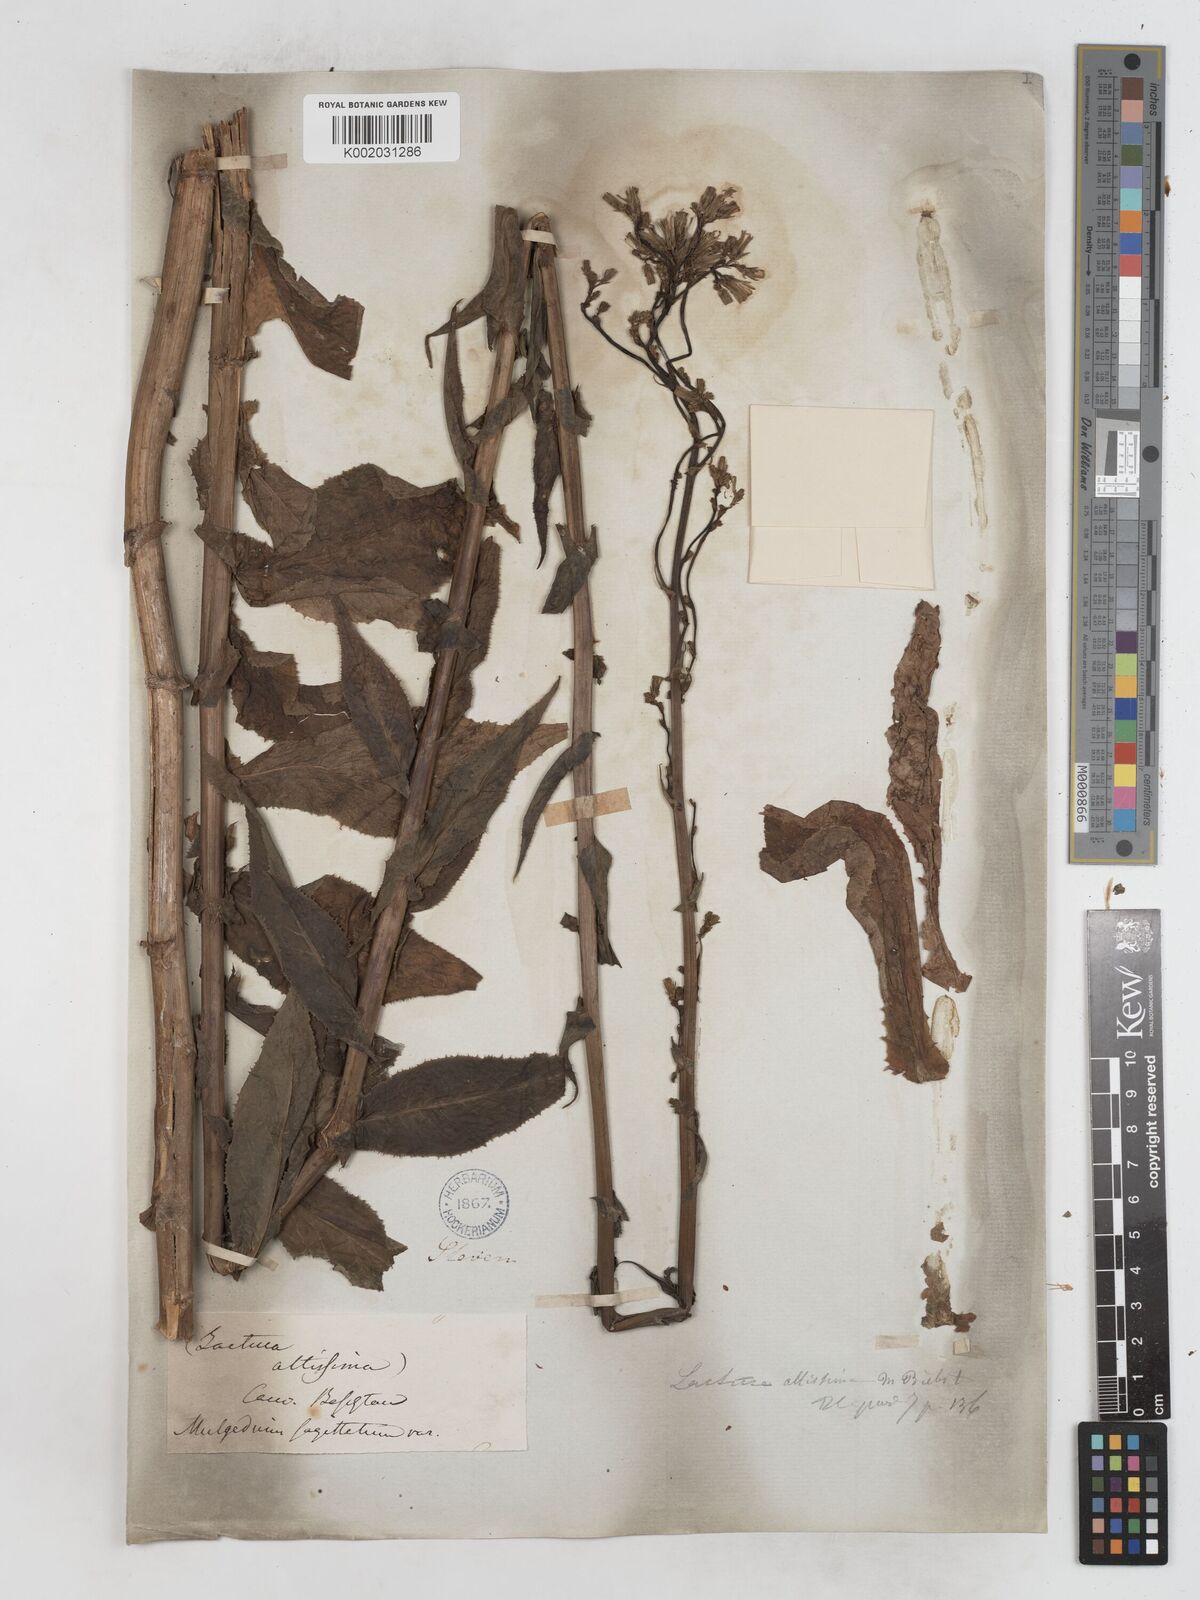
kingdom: Plantae
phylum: Tracheophyta
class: Magnoliopsida
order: Asterales
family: Asteraceae
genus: Lactuca
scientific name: Lactuca dolichophylla
